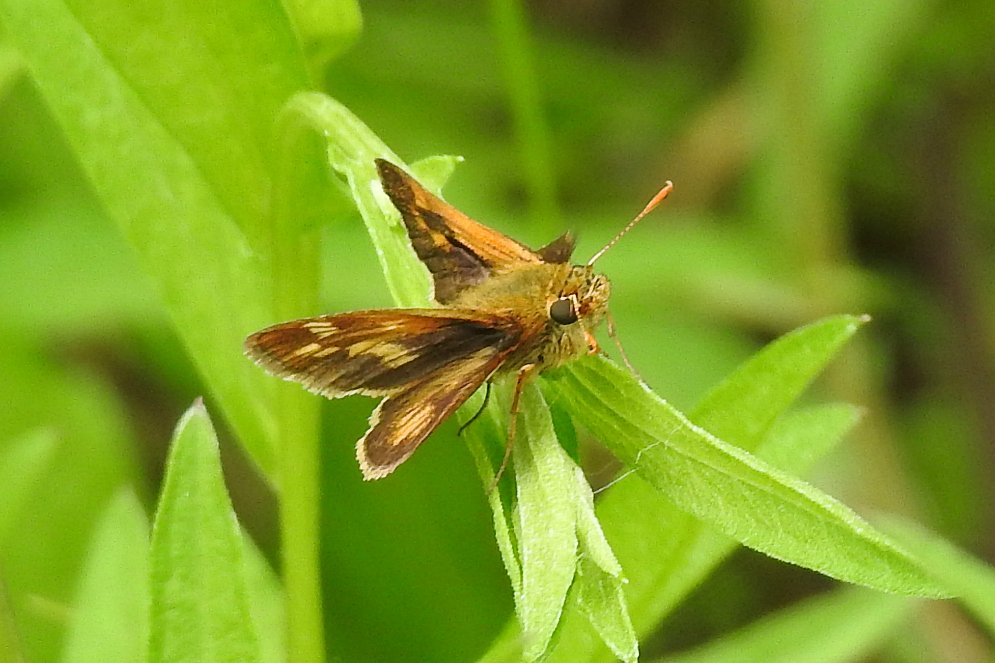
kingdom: Animalia
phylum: Arthropoda
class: Insecta
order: Lepidoptera
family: Hesperiidae
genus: Polites
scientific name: Polites coras
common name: Peck's Skipper
